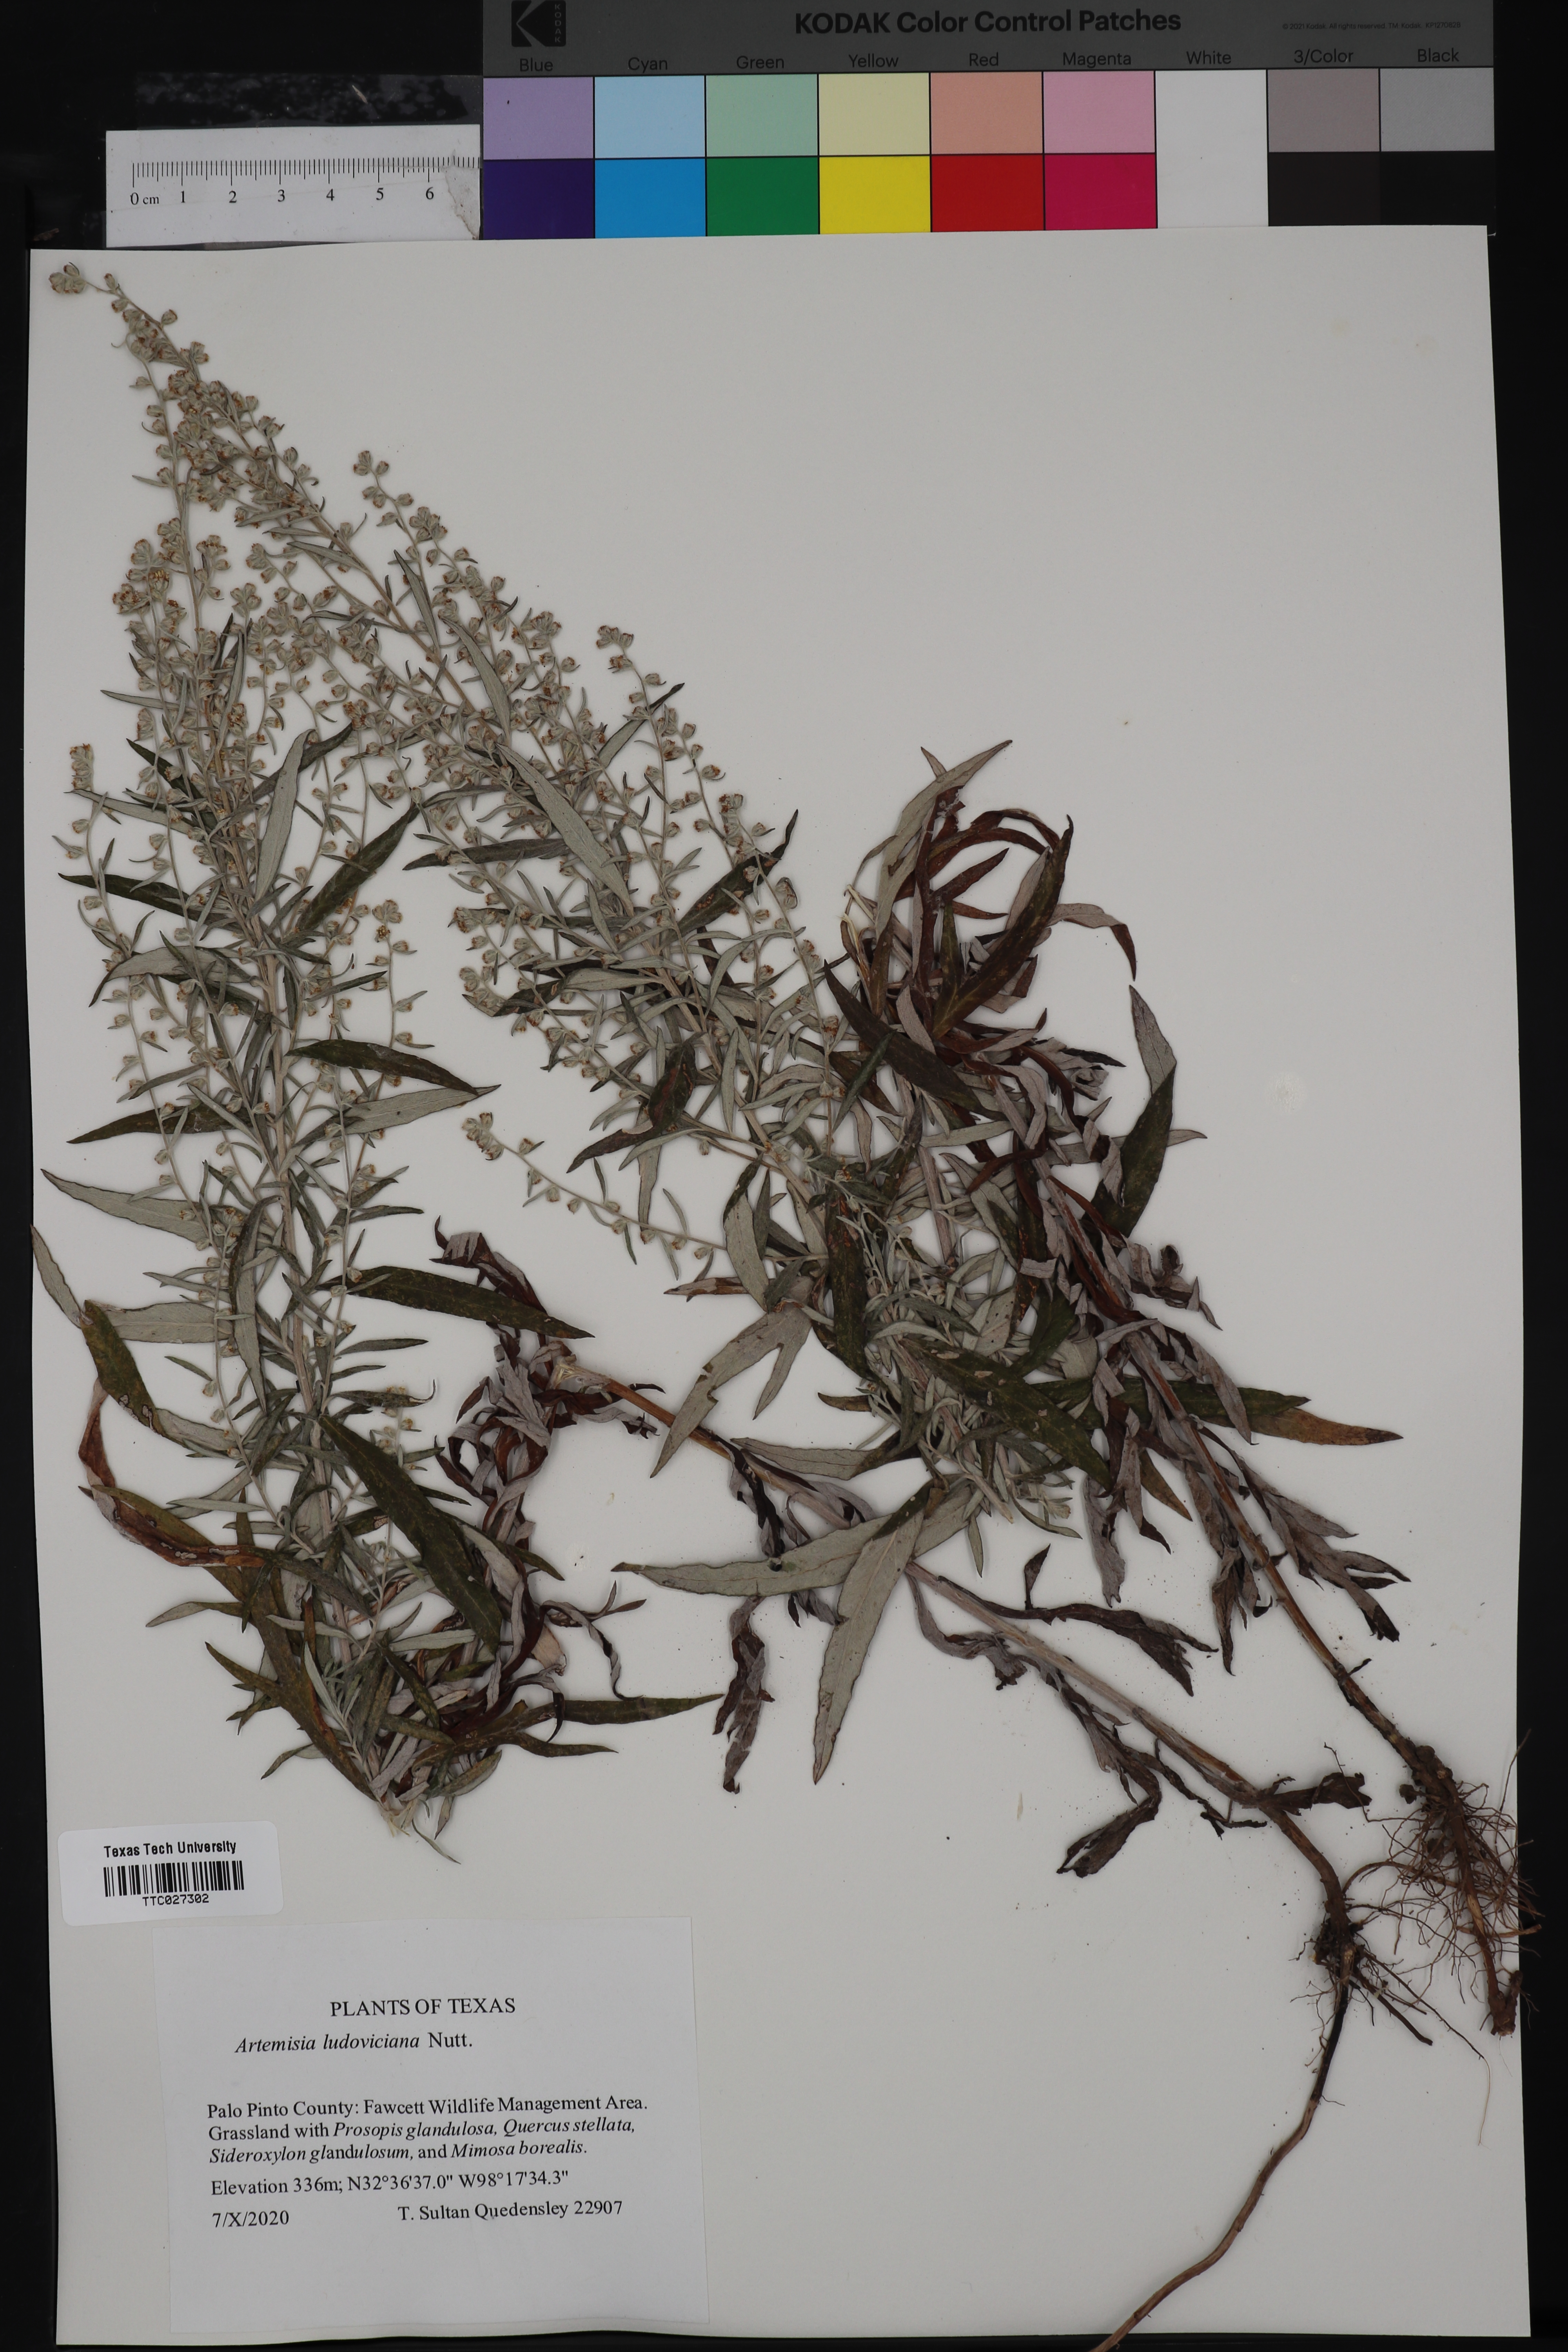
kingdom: Plantae
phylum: Tracheophyta
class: Magnoliopsida
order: Asterales
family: Asteraceae
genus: Artemisia
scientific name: Artemisia ludoviciana
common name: Western mugwort
